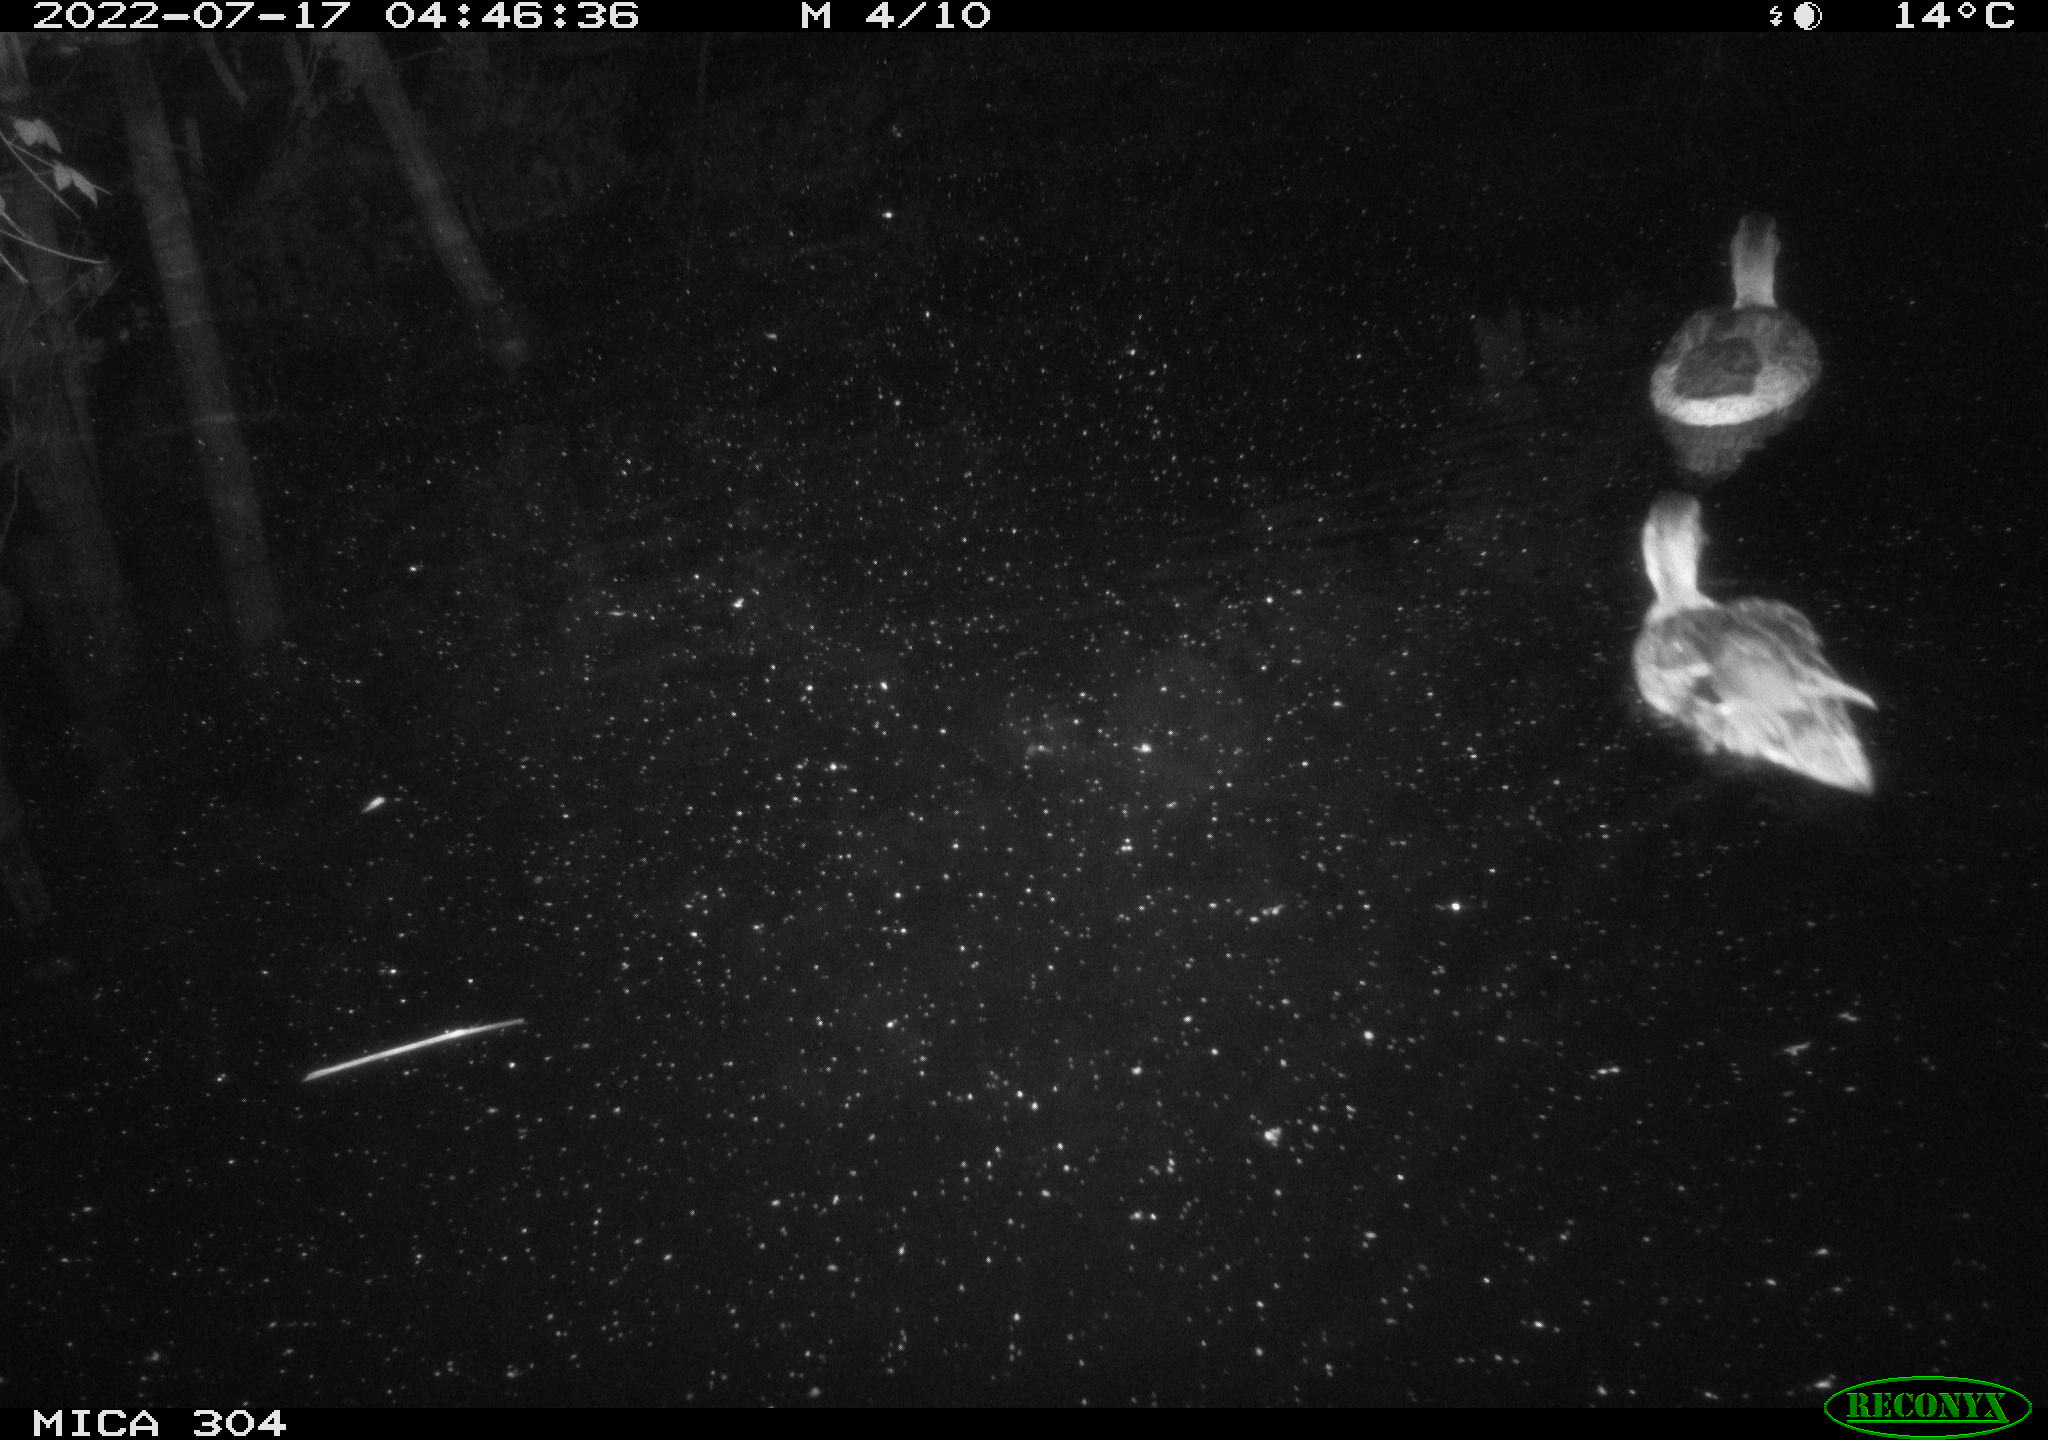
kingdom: Animalia
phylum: Chordata
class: Aves
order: Anseriformes
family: Anatidae
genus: Anas
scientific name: Anas platyrhynchos
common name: Mallard
